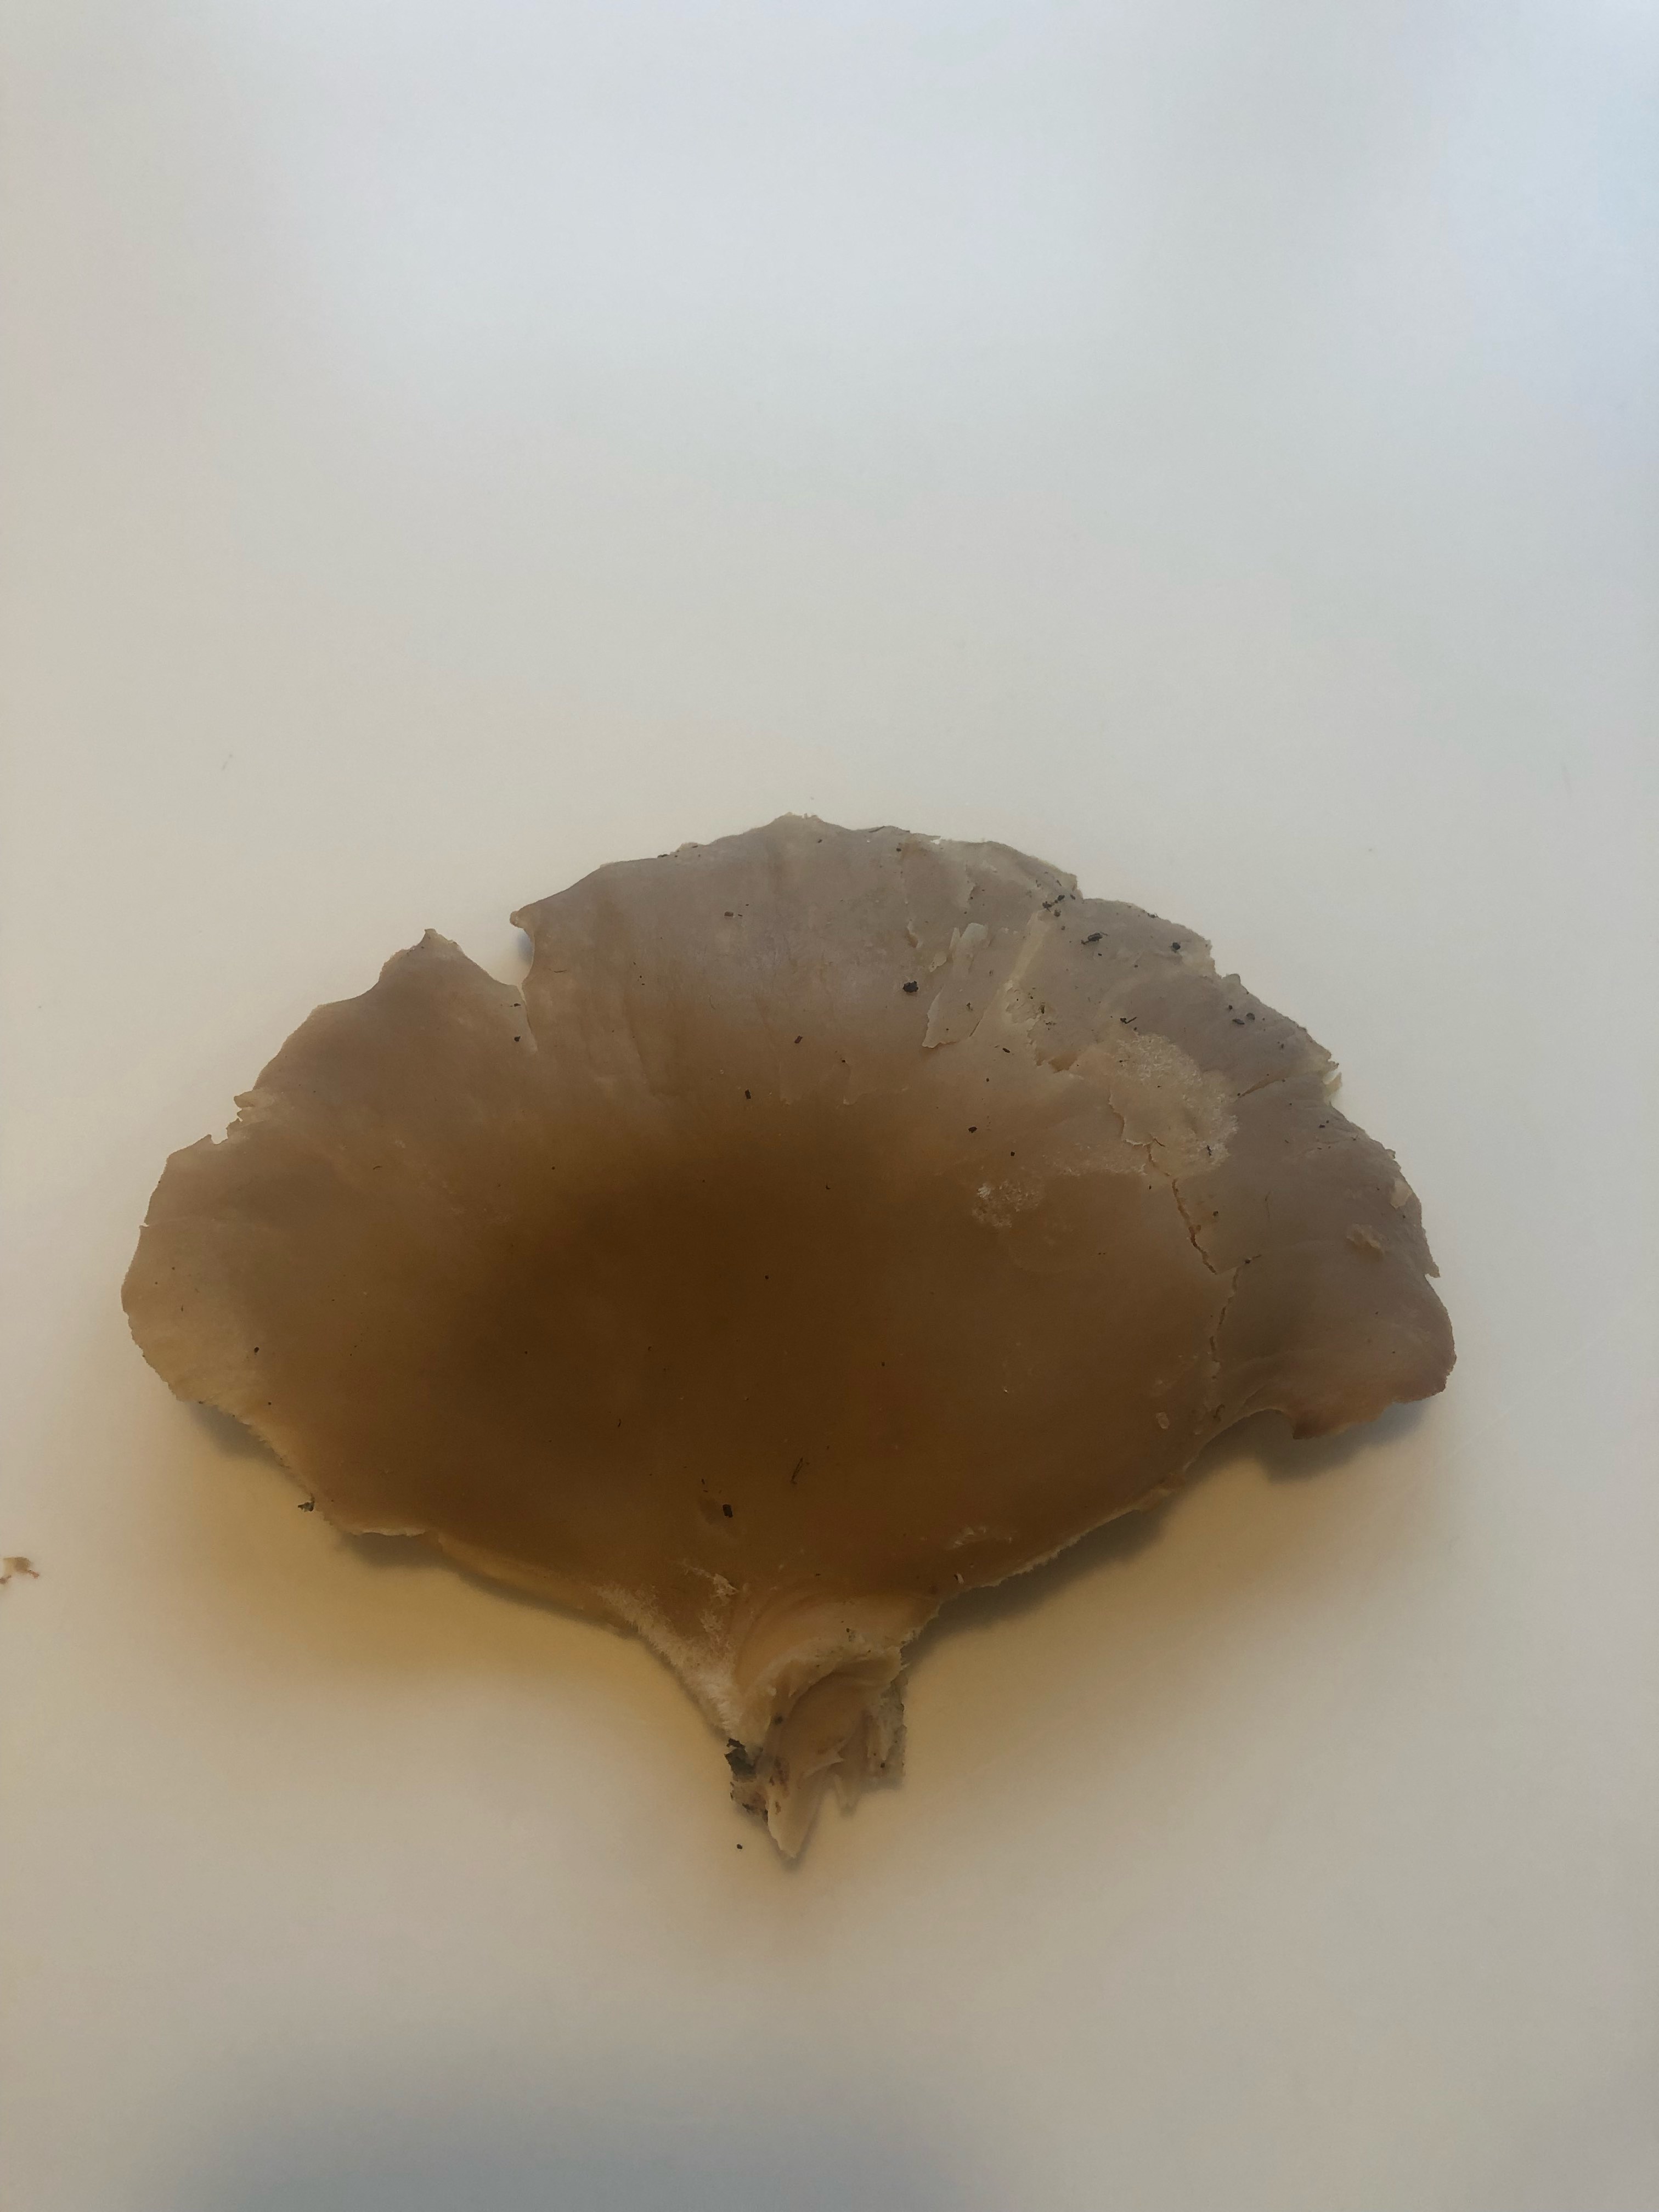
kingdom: Fungi
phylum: Basidiomycota
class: Agaricomycetes
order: Agaricales
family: Pleurotaceae
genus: Pleurotus
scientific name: Pleurotus ostreatus
